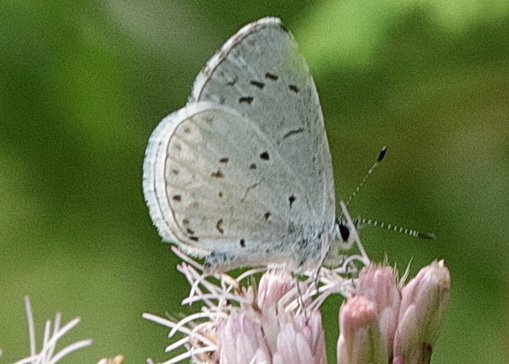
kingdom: Animalia
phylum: Arthropoda
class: Insecta
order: Lepidoptera
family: Lycaenidae
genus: Cyaniris
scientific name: Cyaniris neglecta
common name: Summer Azure
